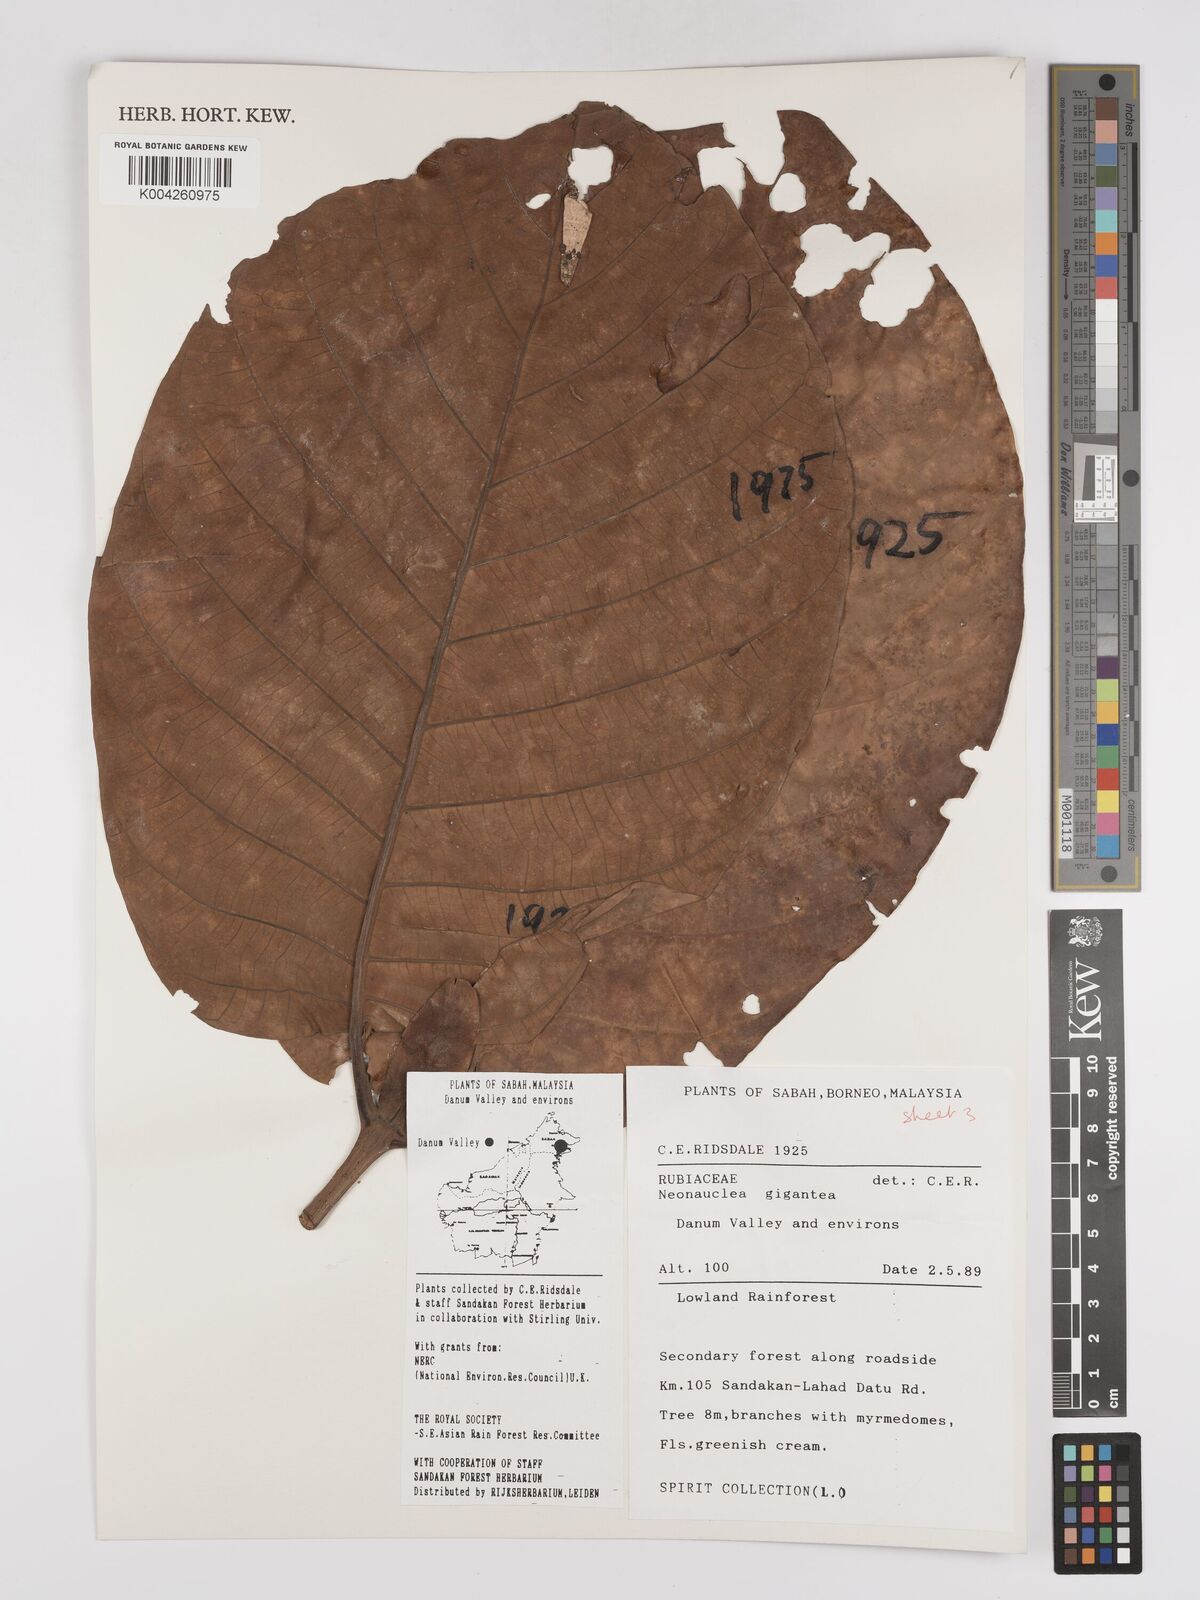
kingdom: Plantae
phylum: Tracheophyta
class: Magnoliopsida
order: Gentianales
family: Rubiaceae
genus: Neonauclea
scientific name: Neonauclea gigantea
